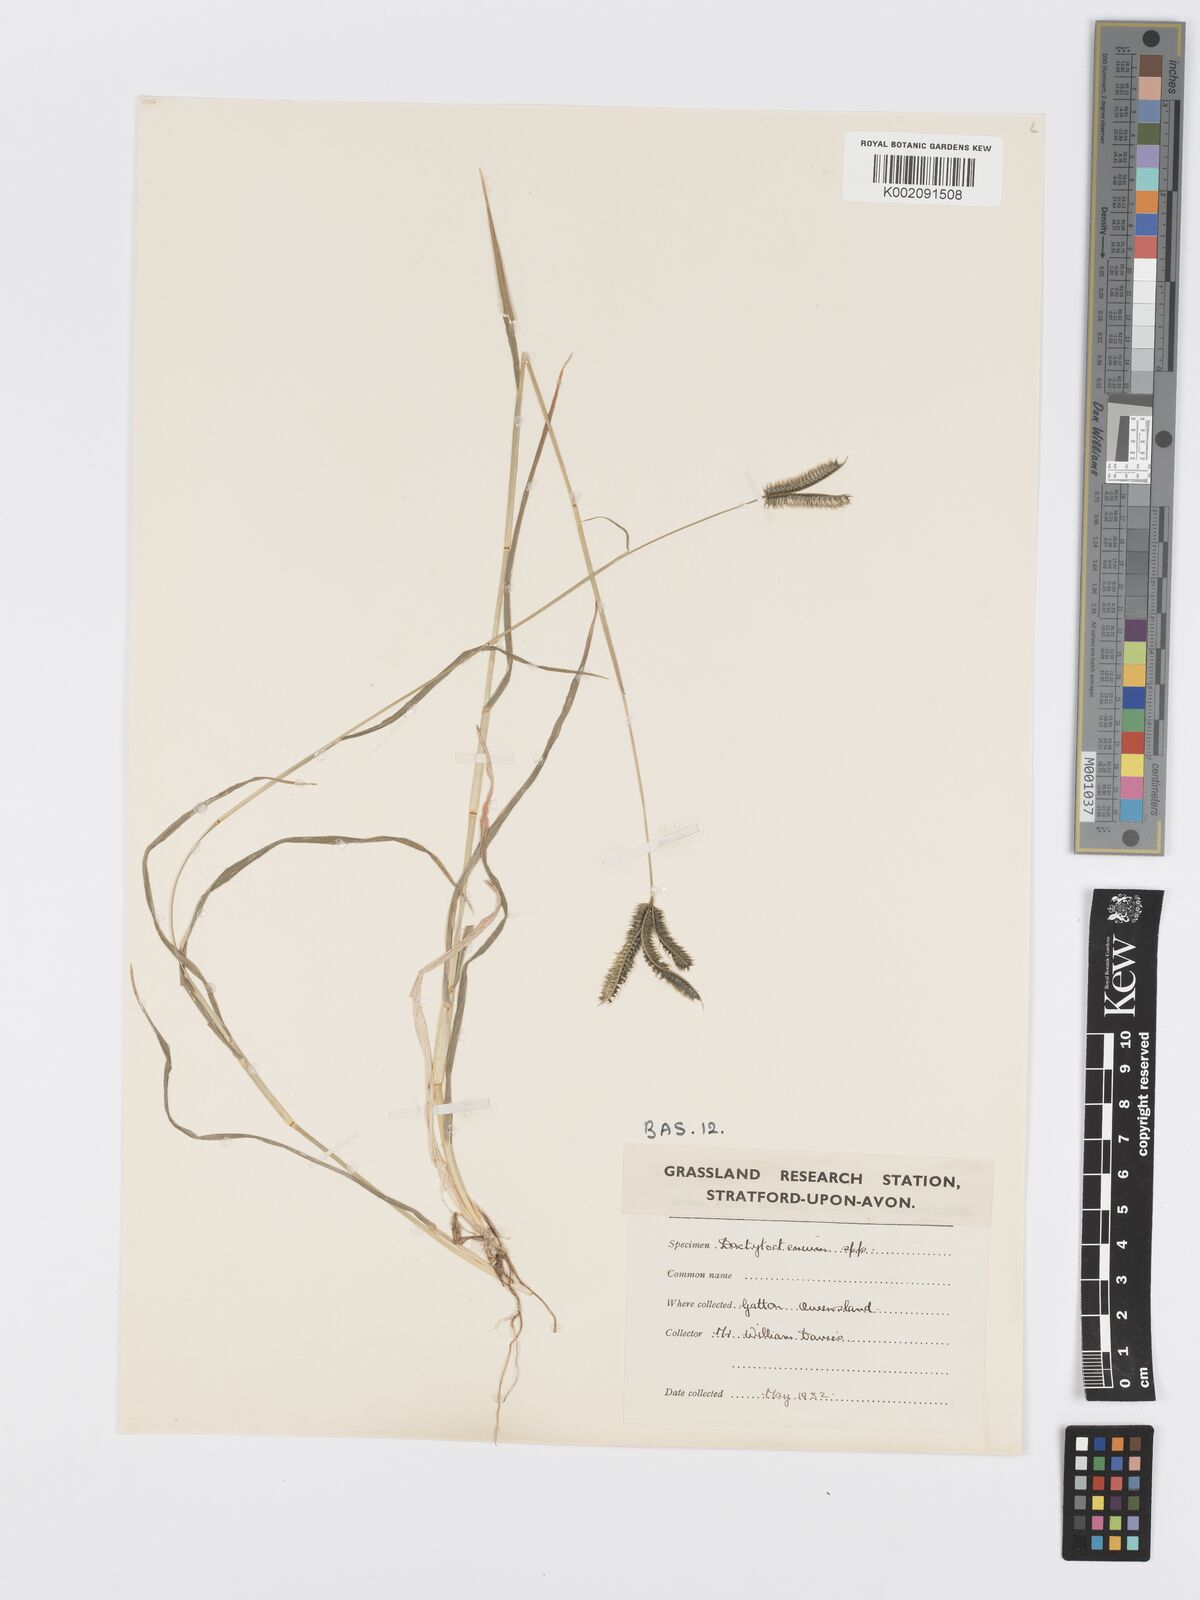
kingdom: Plantae
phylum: Tracheophyta
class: Liliopsida
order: Poales
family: Poaceae
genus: Dactyloctenium
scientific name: Dactyloctenium aegyptium
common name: Egyptian grass
